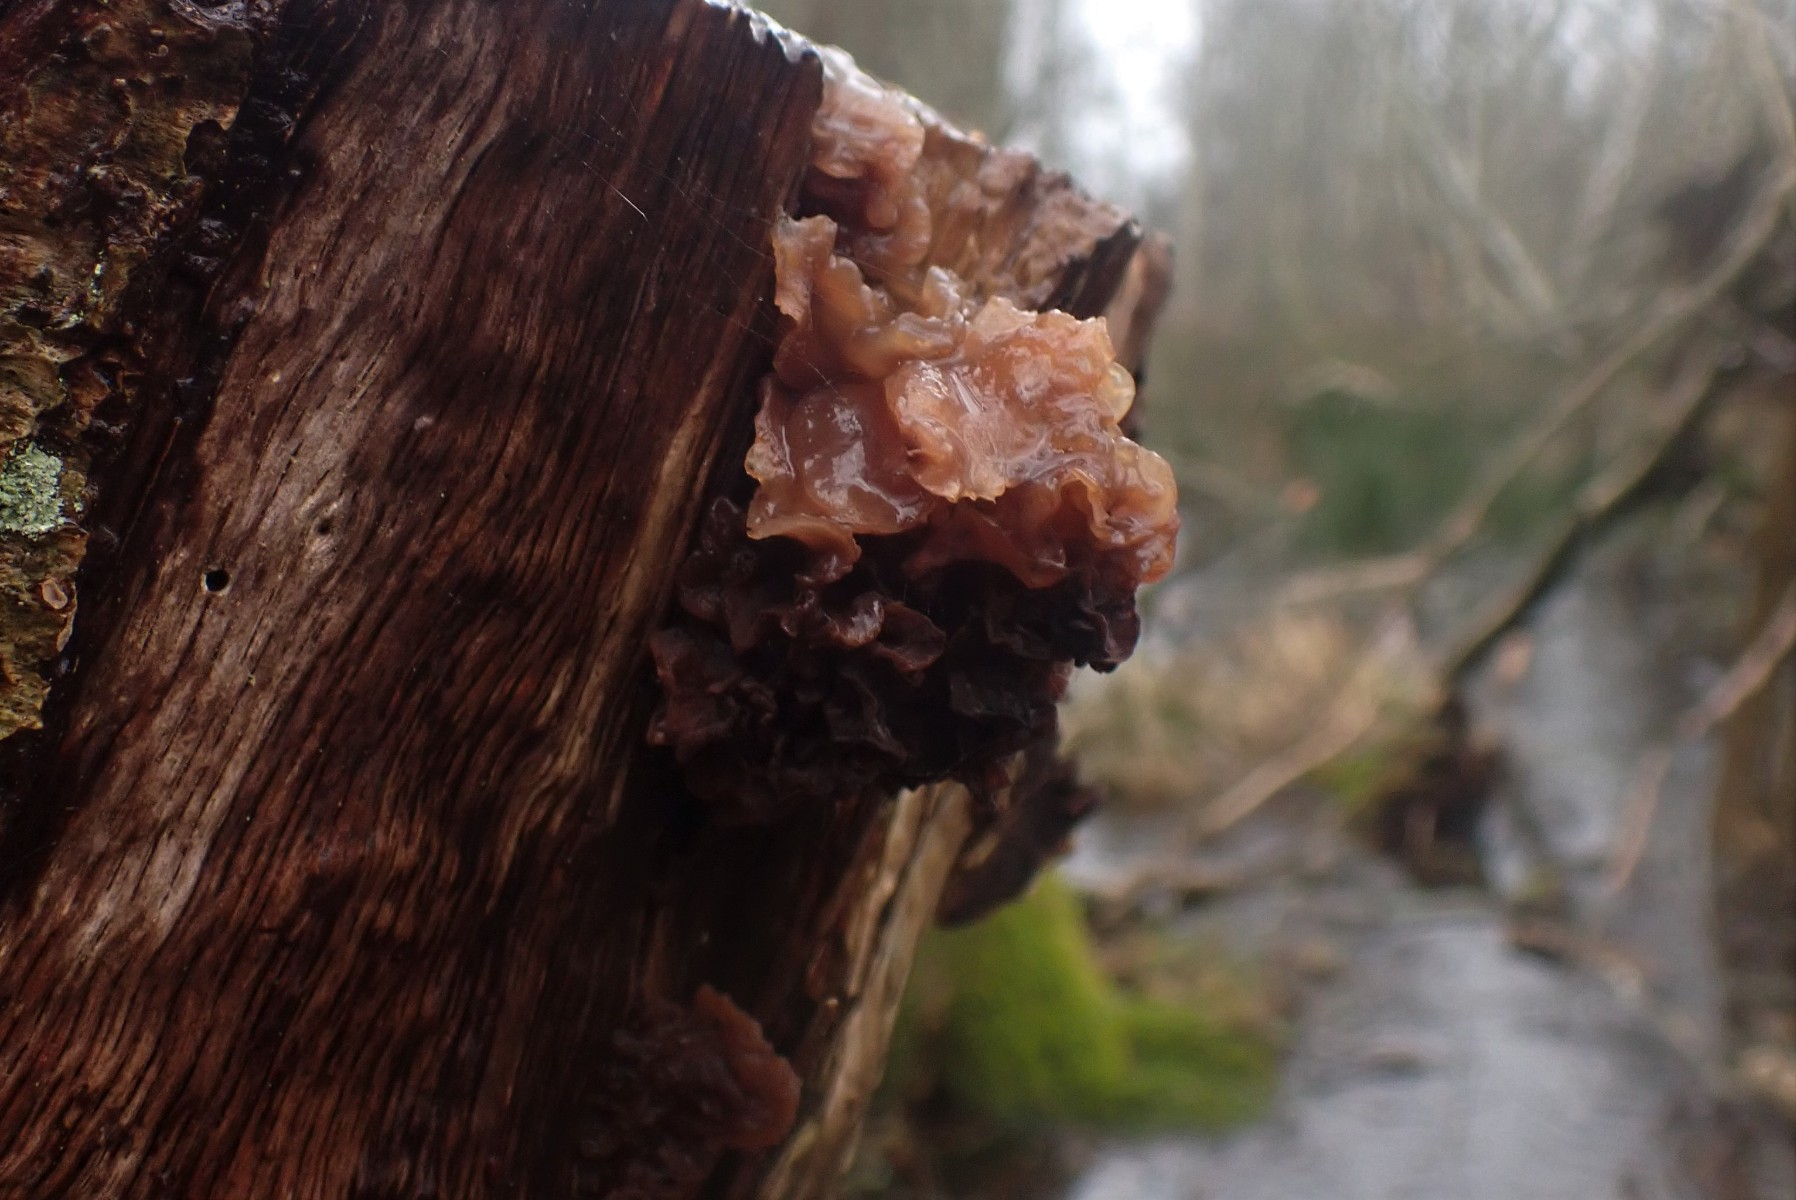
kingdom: Fungi
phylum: Basidiomycota
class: Tremellomycetes
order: Tremellales
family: Tremellaceae
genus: Phaeotremella
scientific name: Phaeotremella frondosa
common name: kæmpe-bævresvamp
